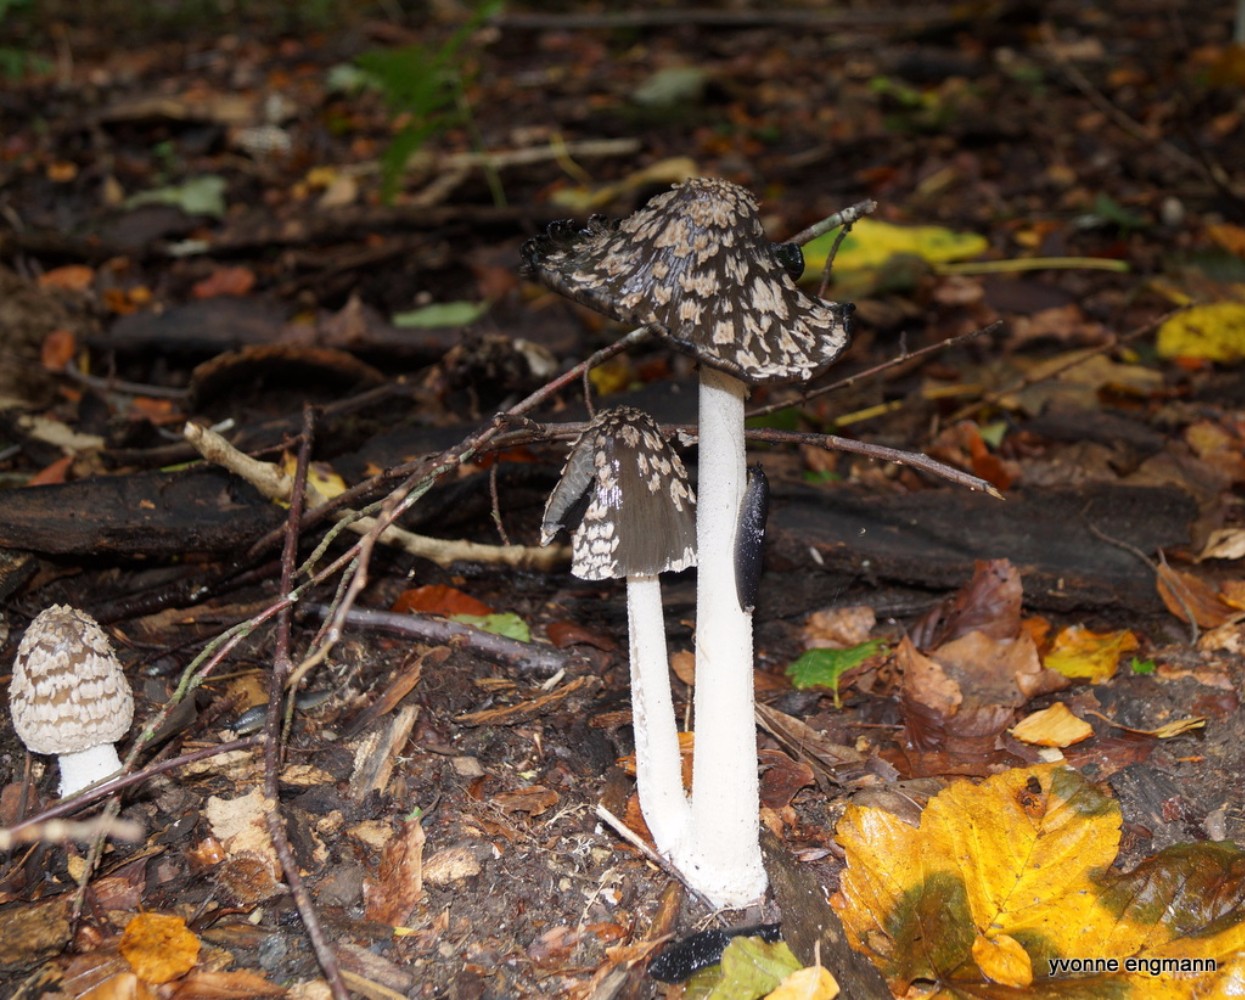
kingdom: Fungi
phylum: Basidiomycota
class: Agaricomycetes
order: Agaricales
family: Psathyrellaceae
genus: Coprinopsis
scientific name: Coprinopsis picacea
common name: skade-blækhat
